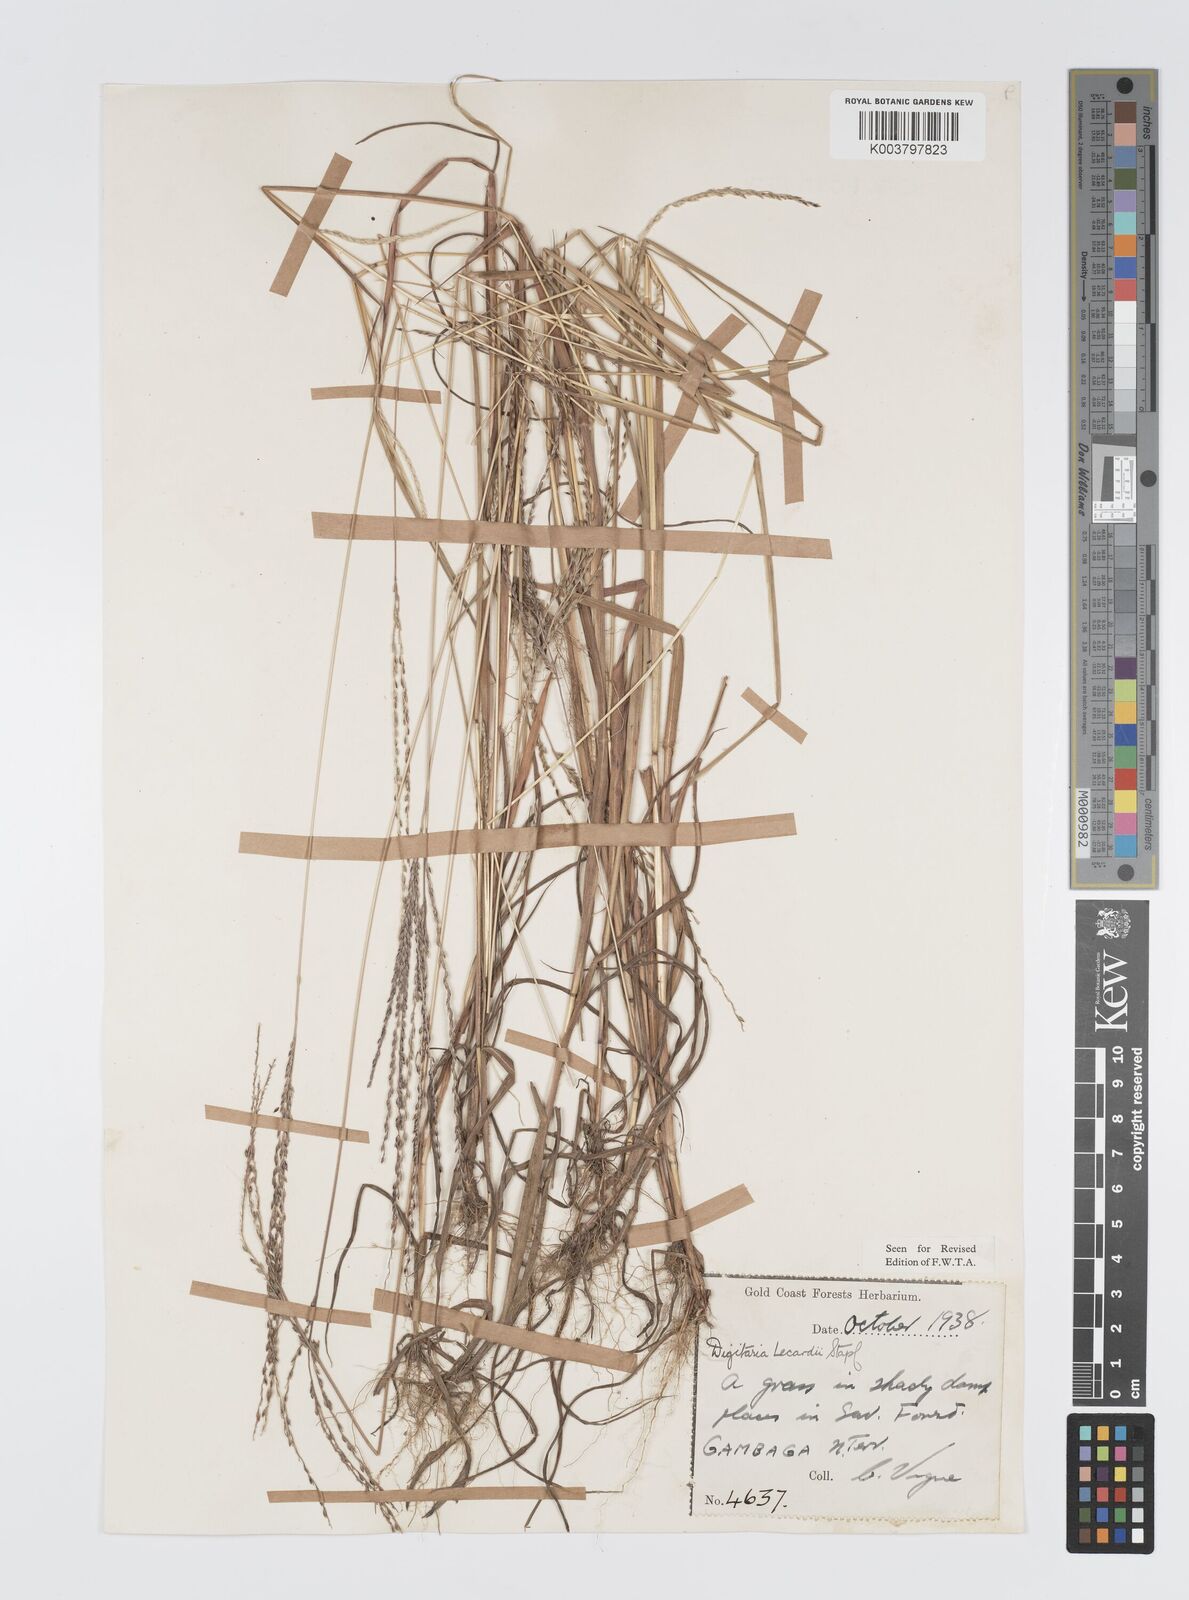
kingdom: Plantae
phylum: Tracheophyta
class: Liliopsida
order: Poales
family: Poaceae
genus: Digitaria
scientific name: Digitaria
